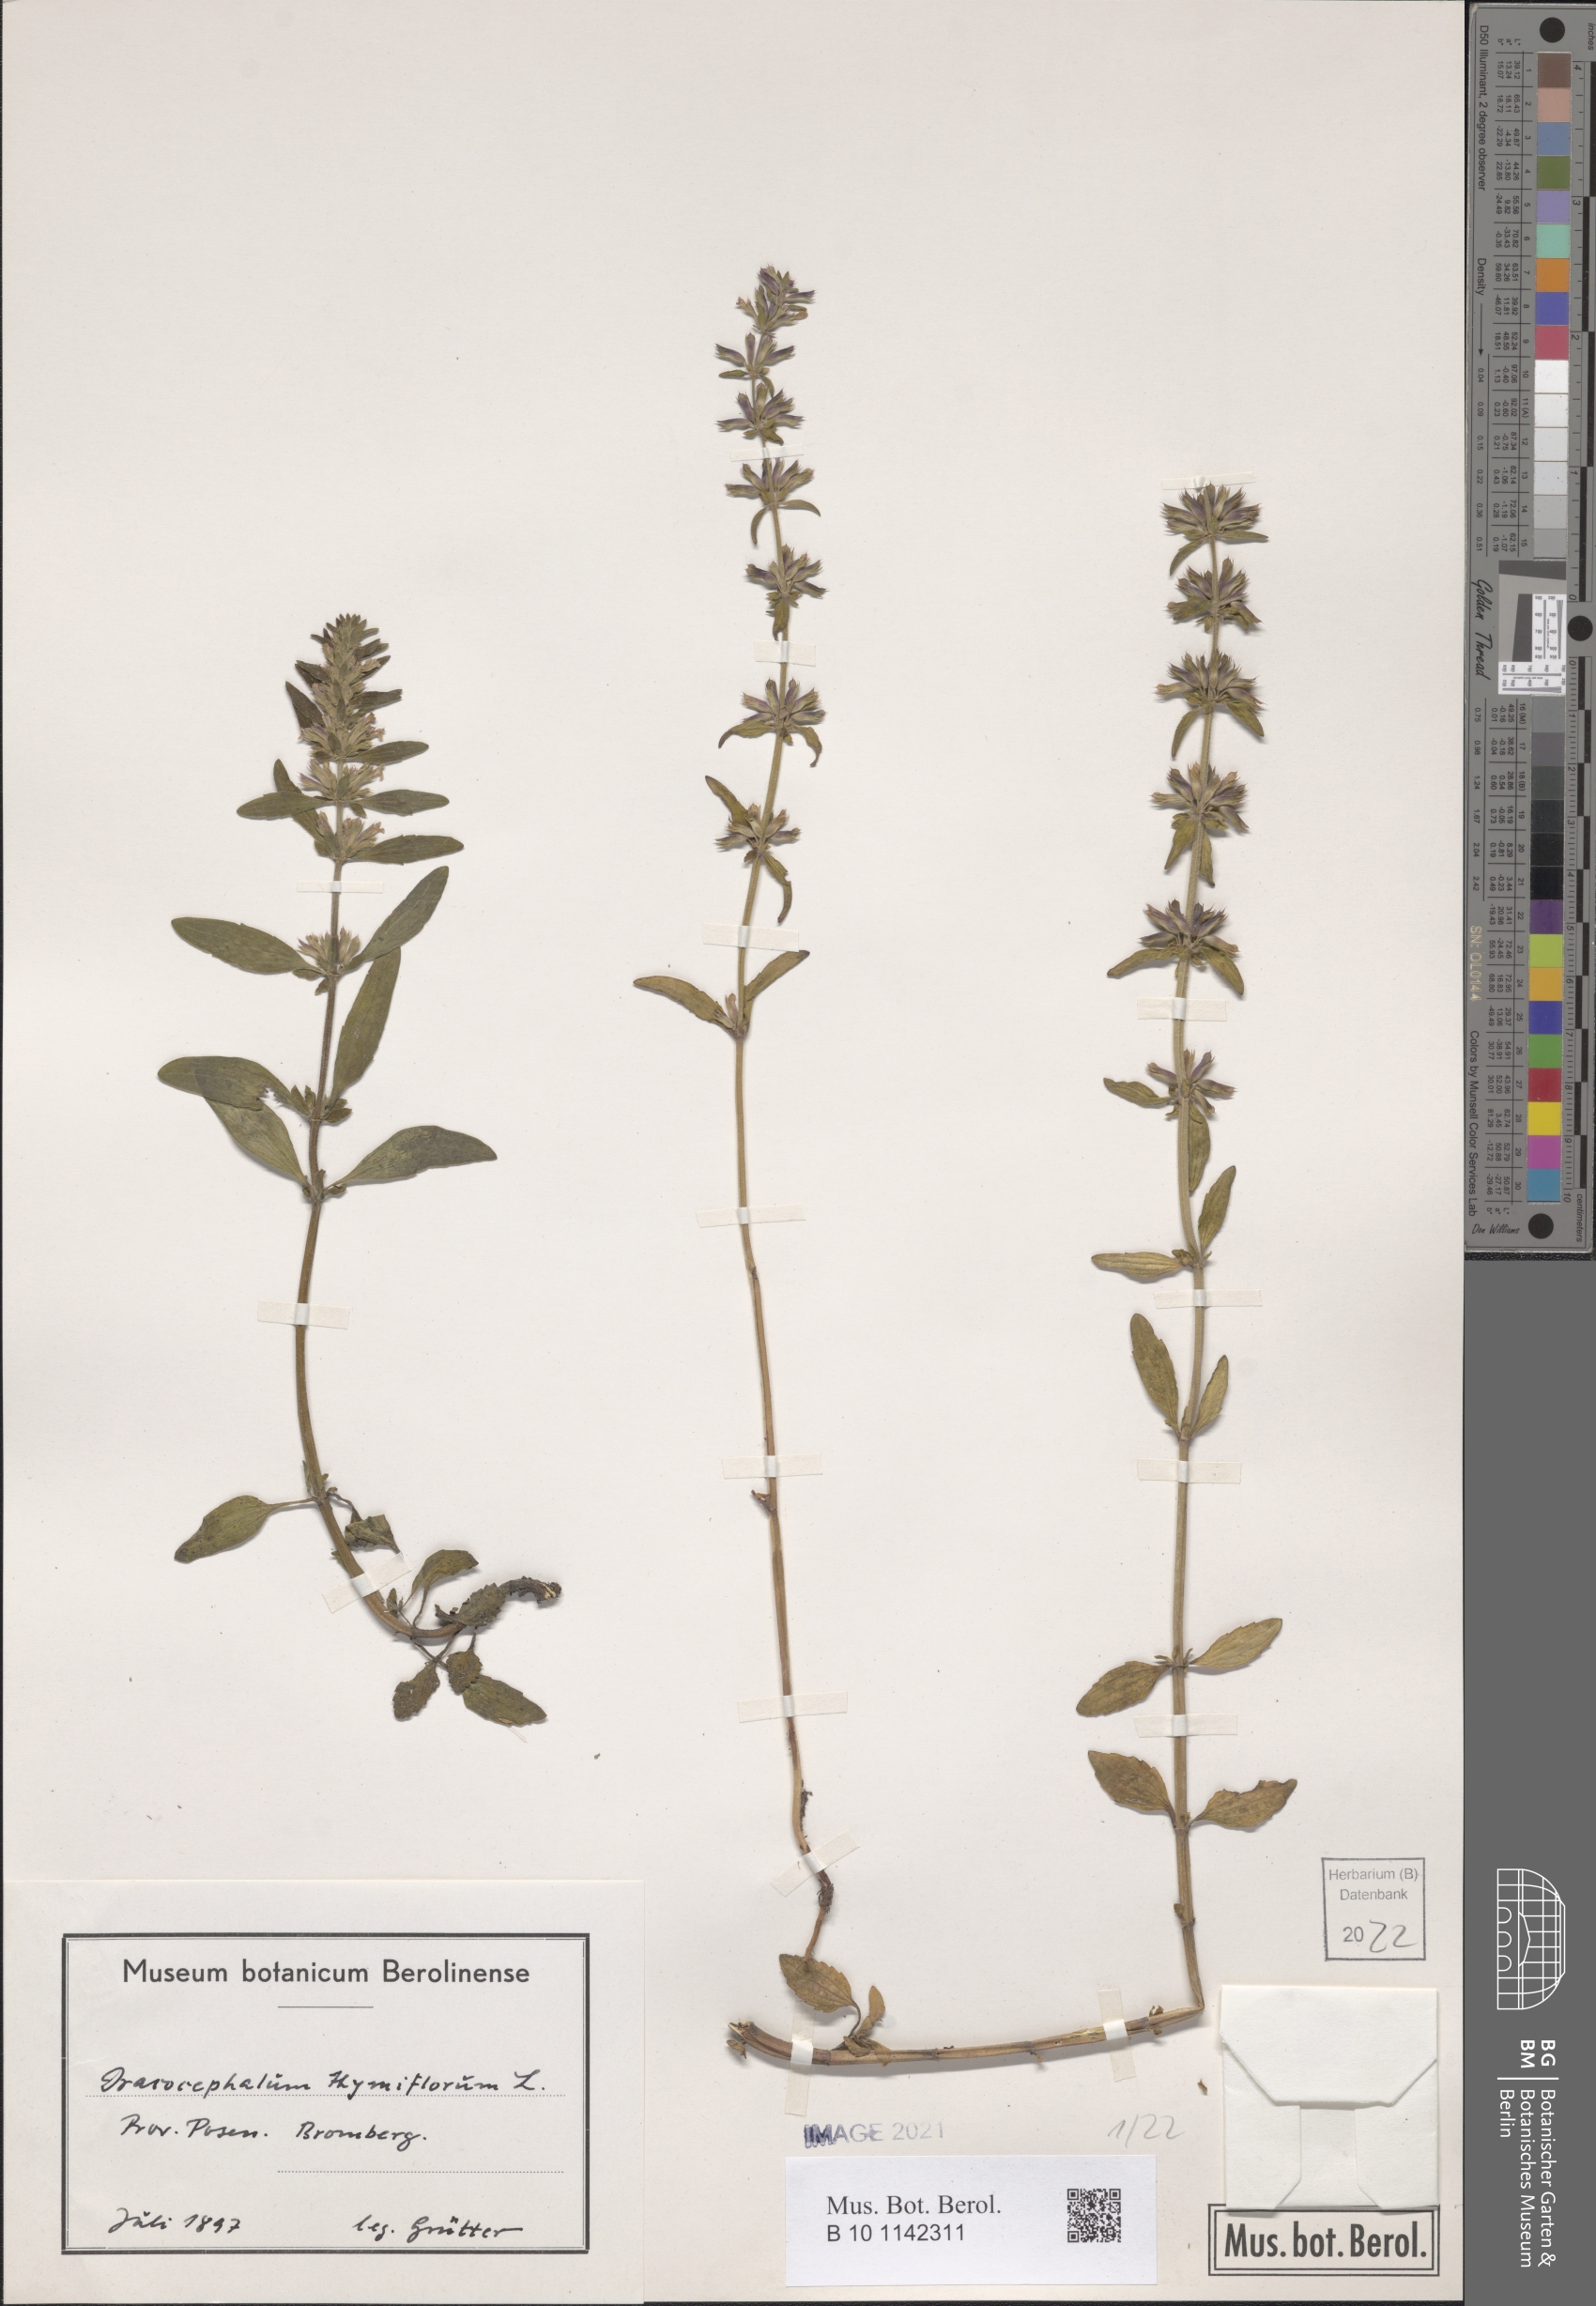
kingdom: Plantae
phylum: Tracheophyta
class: Magnoliopsida
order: Lamiales
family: Lamiaceae
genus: Dracocephalum
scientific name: Dracocephalum thymiflorum
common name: Thymeleaf dragonhead
